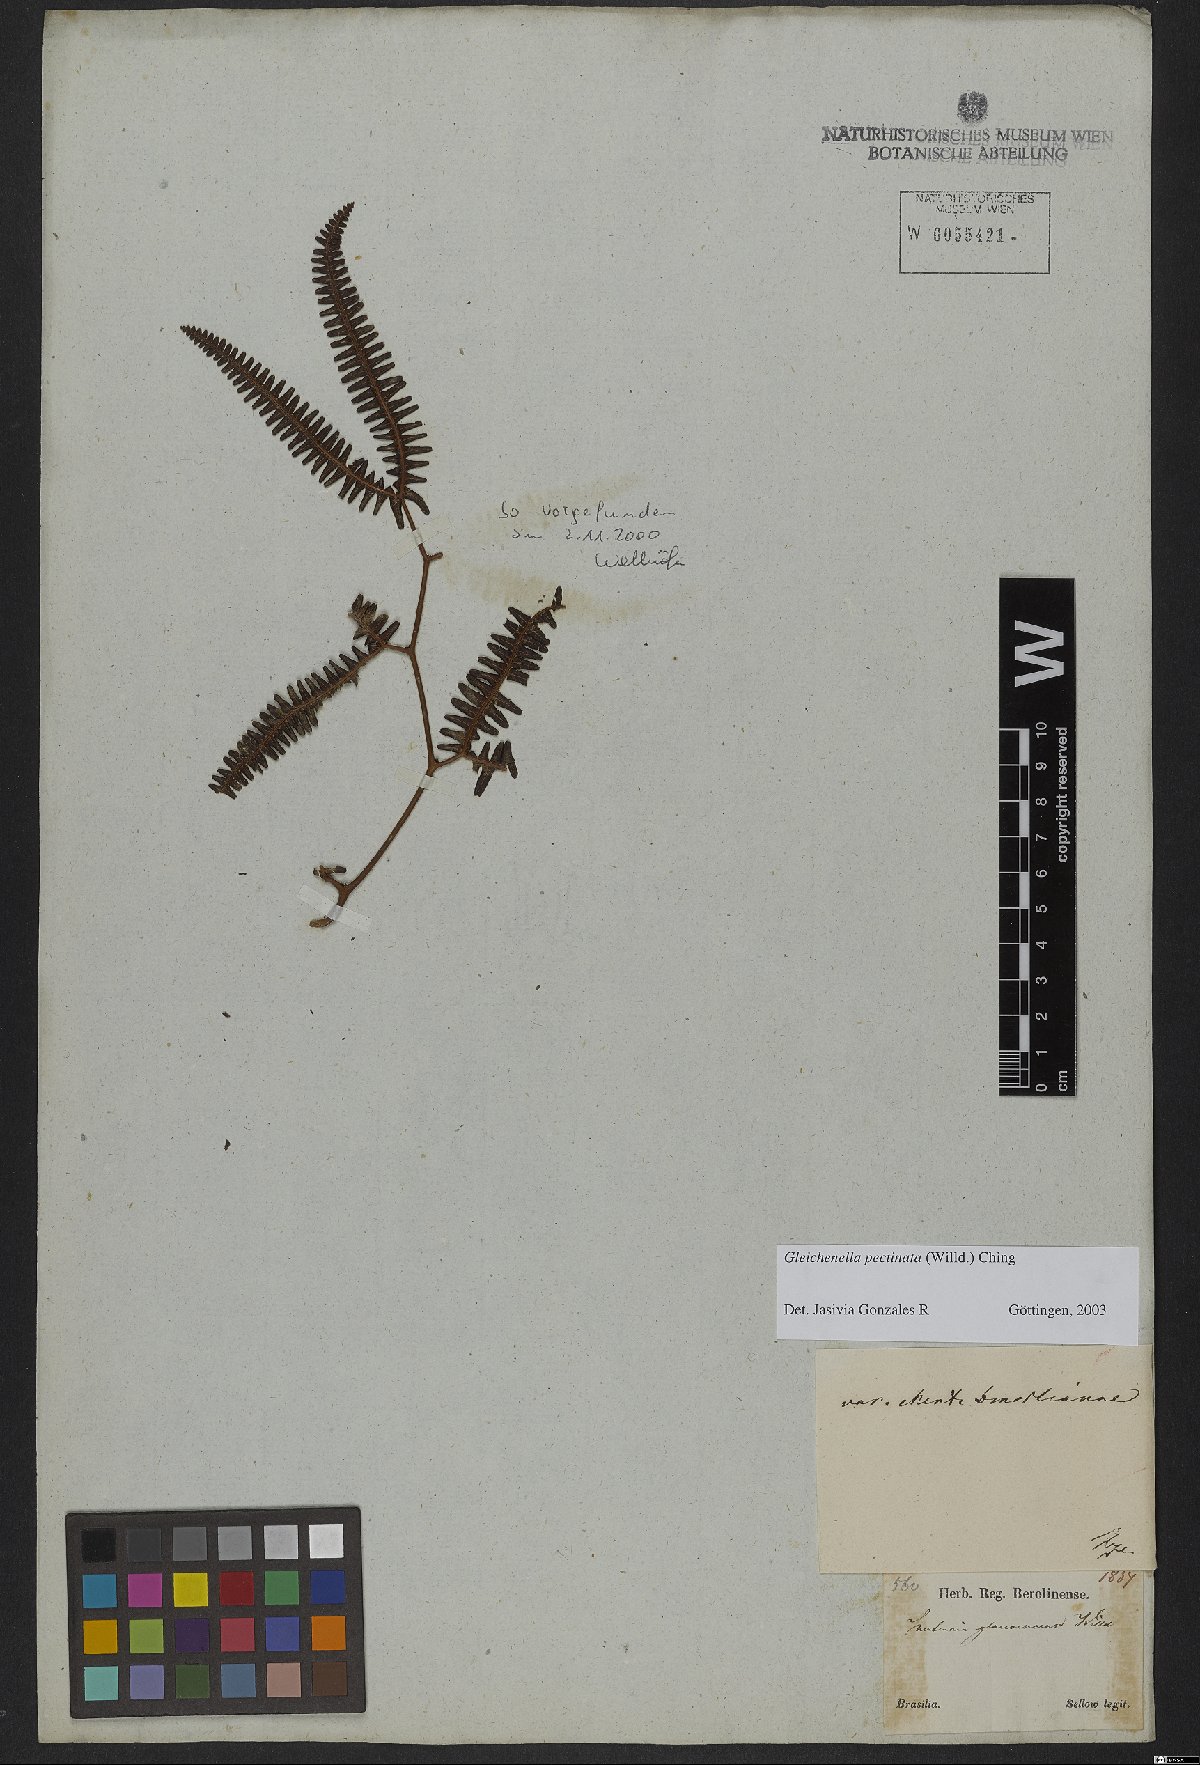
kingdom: Plantae
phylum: Tracheophyta
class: Polypodiopsida
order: Gleicheniales
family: Gleicheniaceae
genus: Gleichenella
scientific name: Gleichenella pectinata
